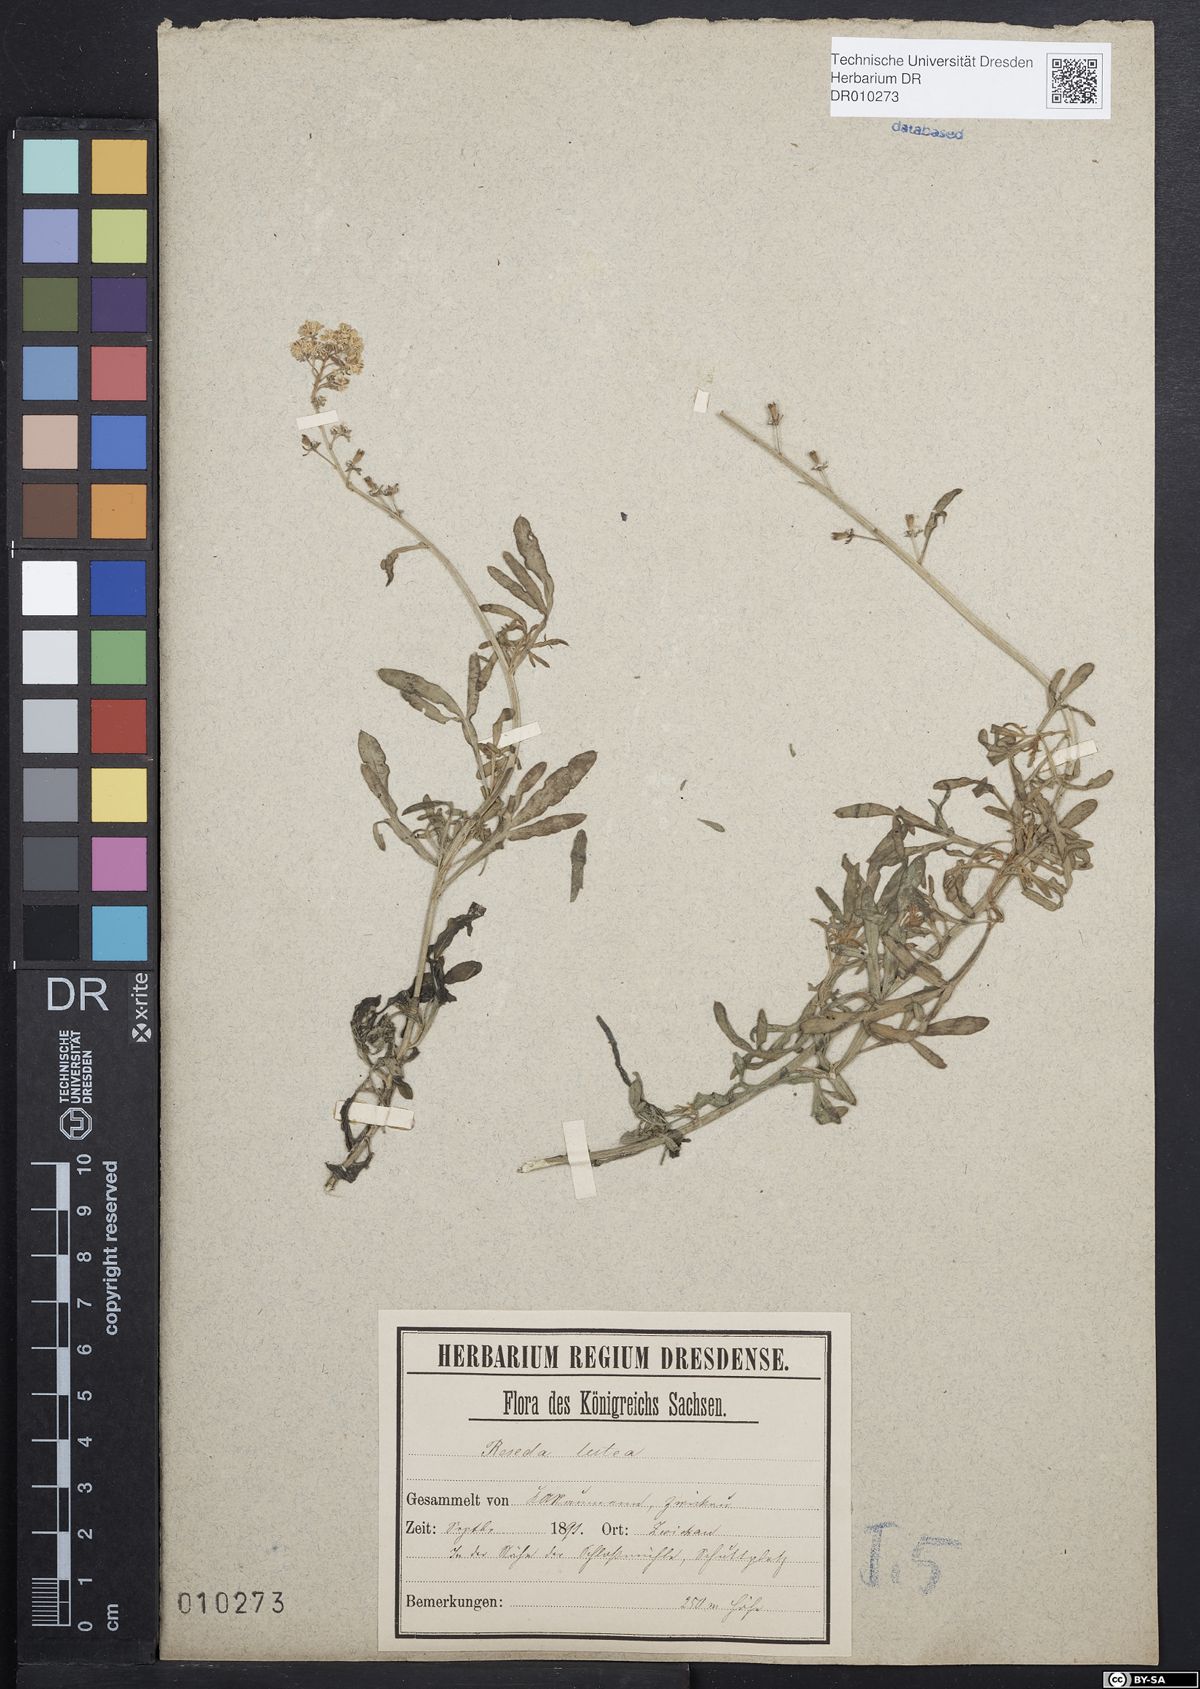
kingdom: Plantae
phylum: Tracheophyta
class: Magnoliopsida
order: Brassicales
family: Resedaceae
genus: Reseda
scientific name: Reseda lutea
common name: Wild mignonette
